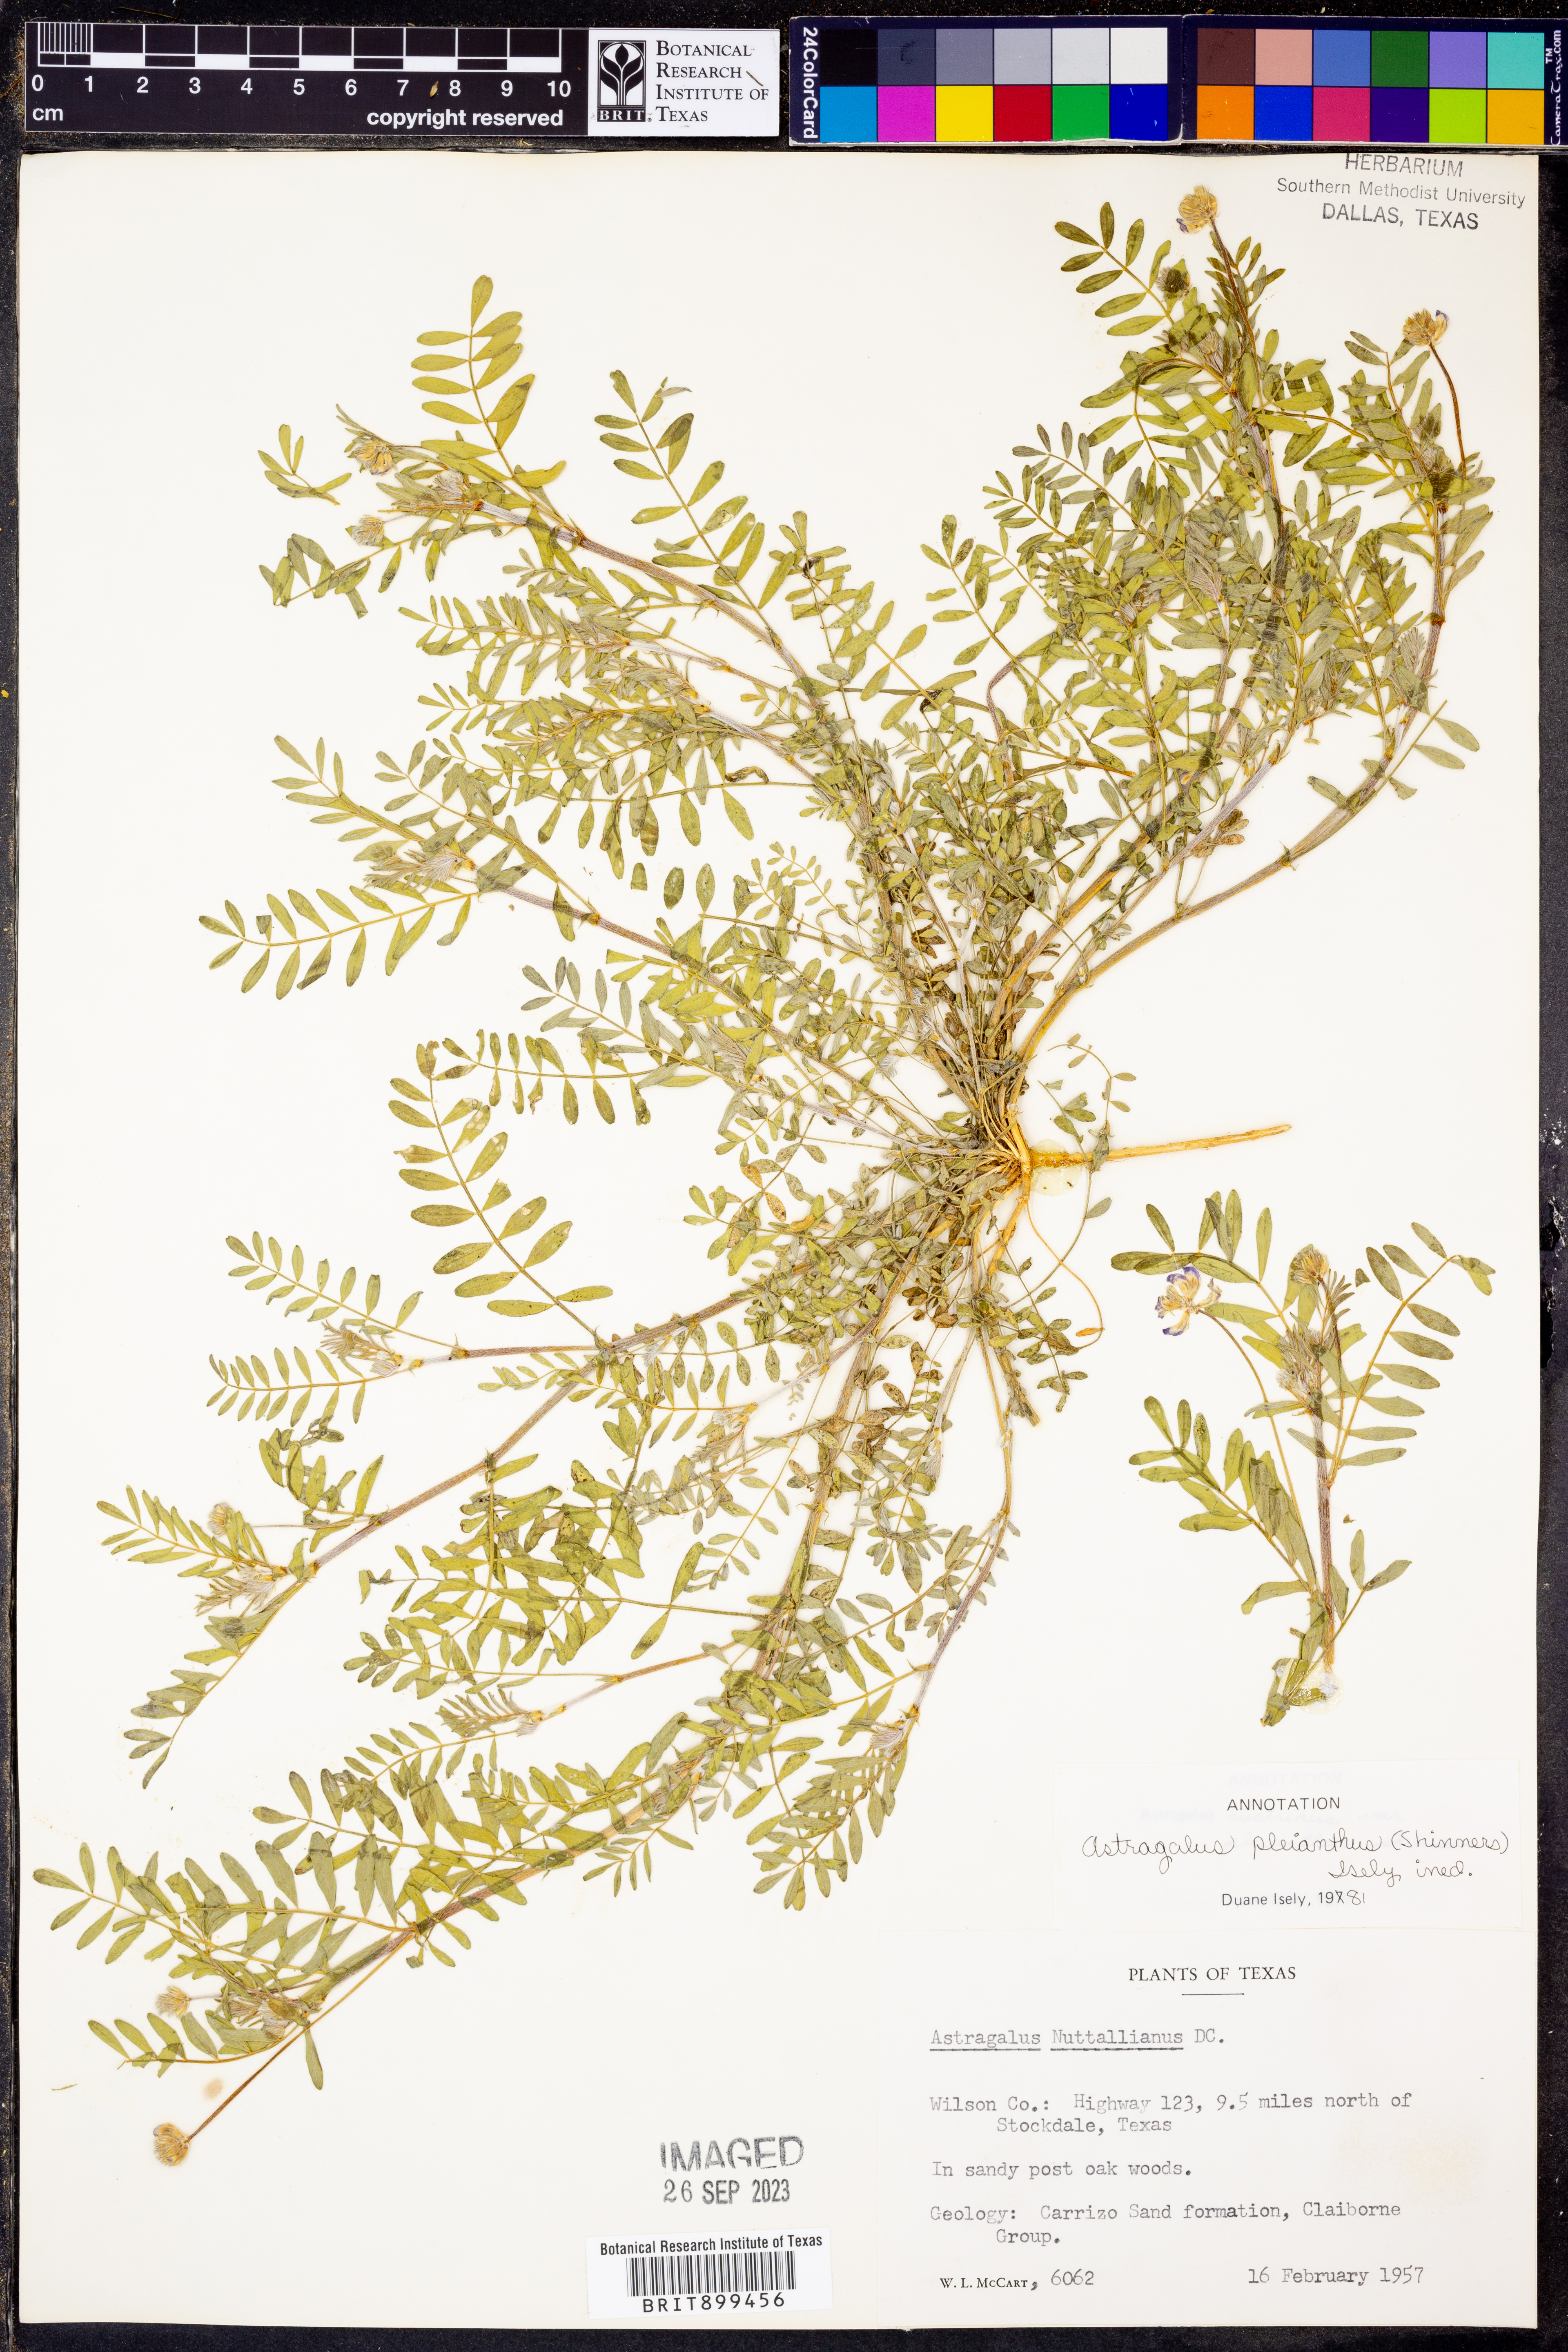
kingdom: Plantae
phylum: Tracheophyta
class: Magnoliopsida
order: Fabales
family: Fabaceae
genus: Astragalus
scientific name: Astragalus pleianthus
